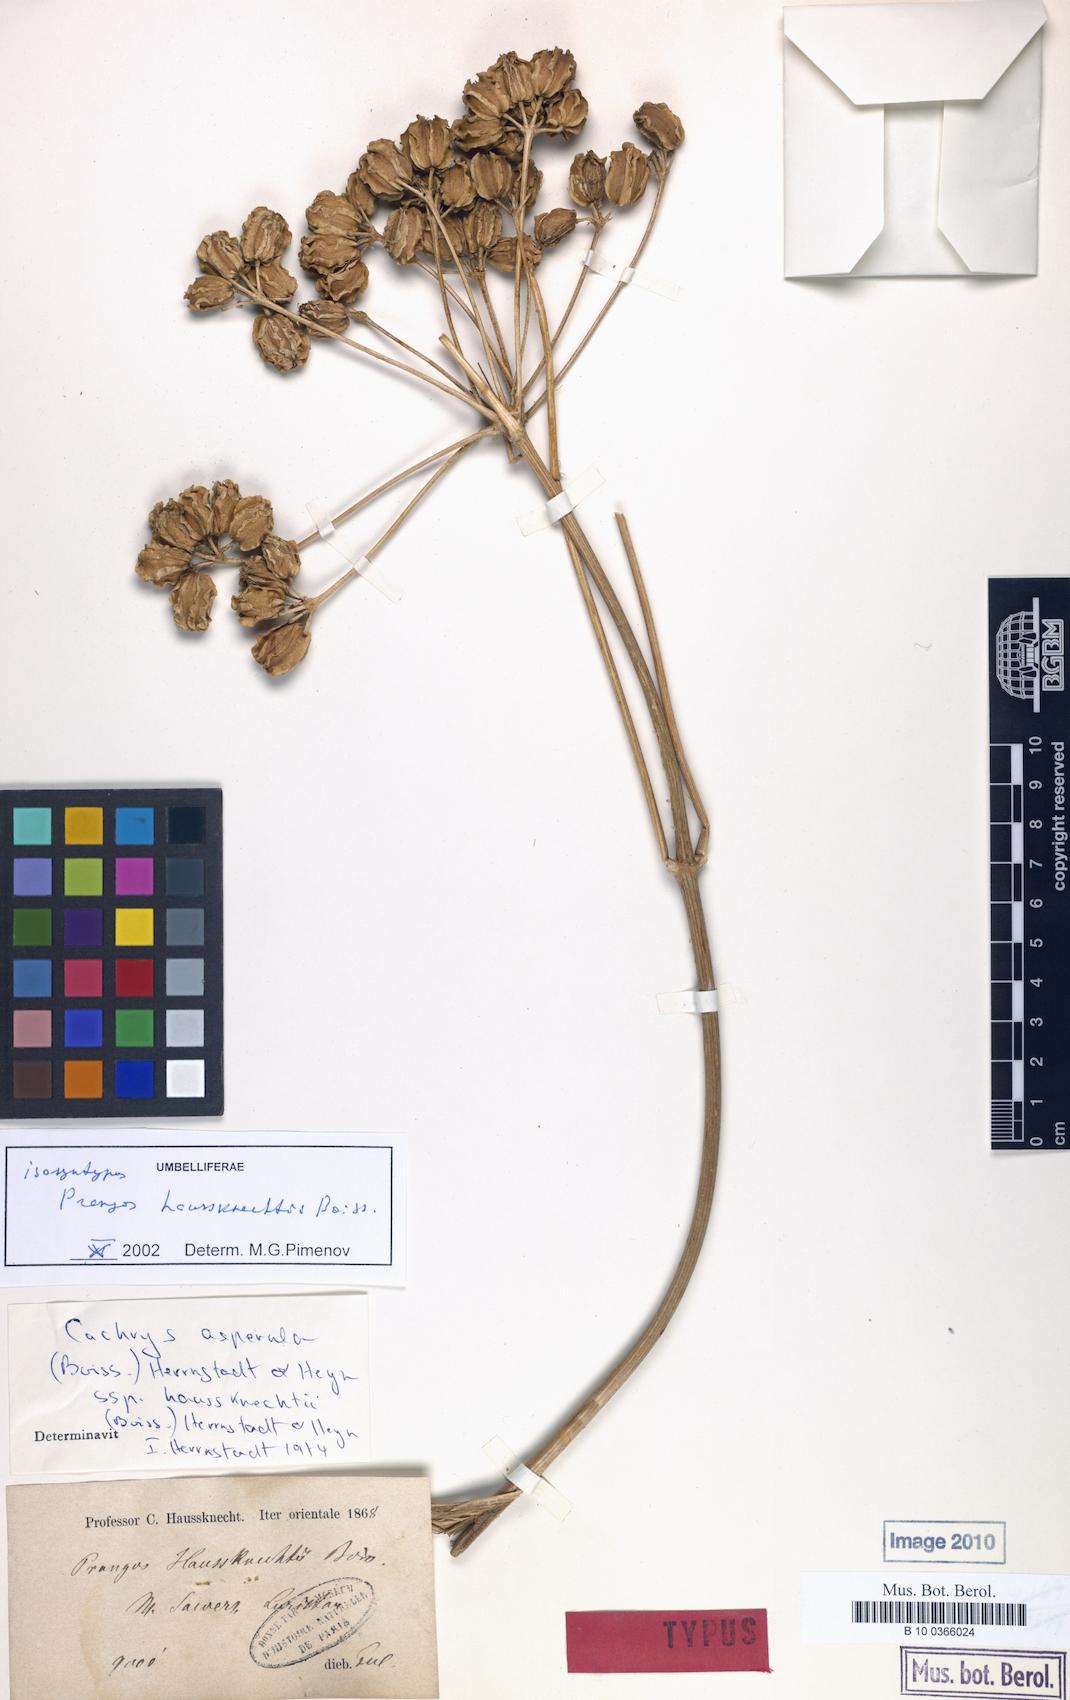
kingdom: Plantae
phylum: Tracheophyta
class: Magnoliopsida
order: Apiales
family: Apiaceae
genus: Prangos
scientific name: Prangos asperula
